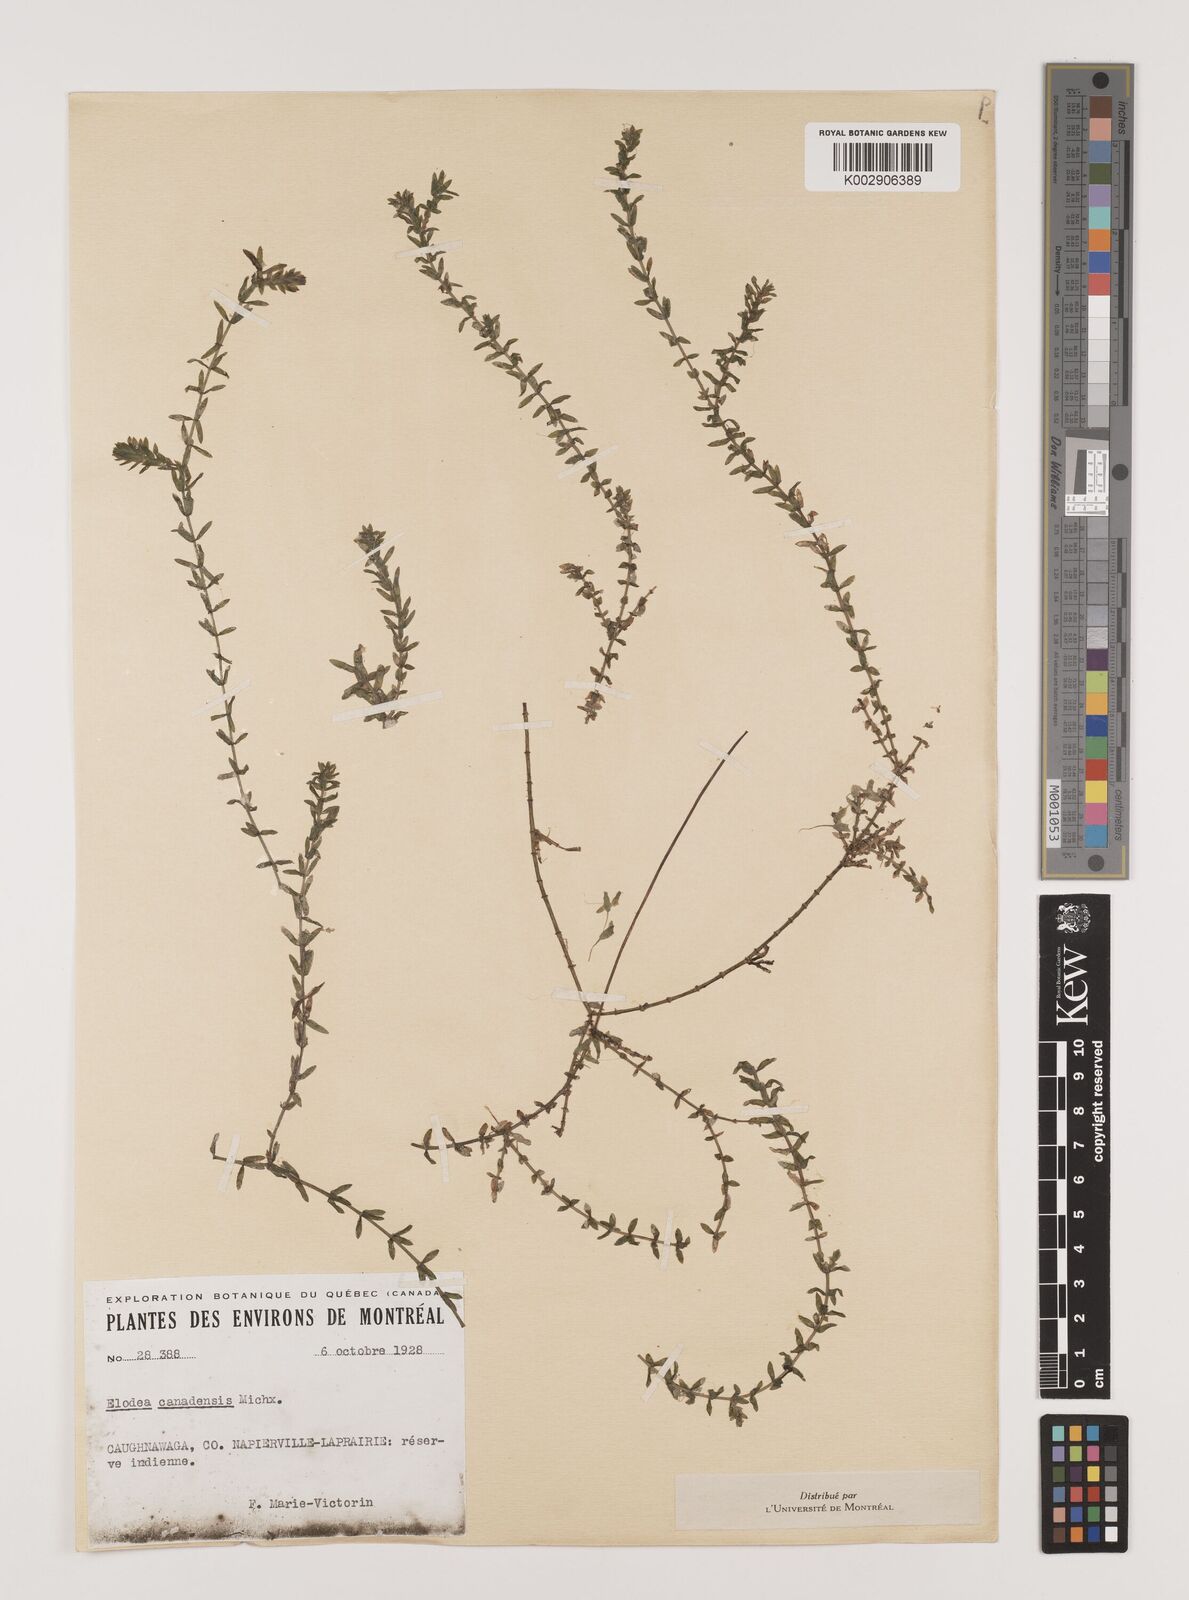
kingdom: Plantae
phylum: Tracheophyta
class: Liliopsida
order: Alismatales
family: Hydrocharitaceae
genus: Elodea
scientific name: Elodea canadensis
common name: Canadian waterweed
